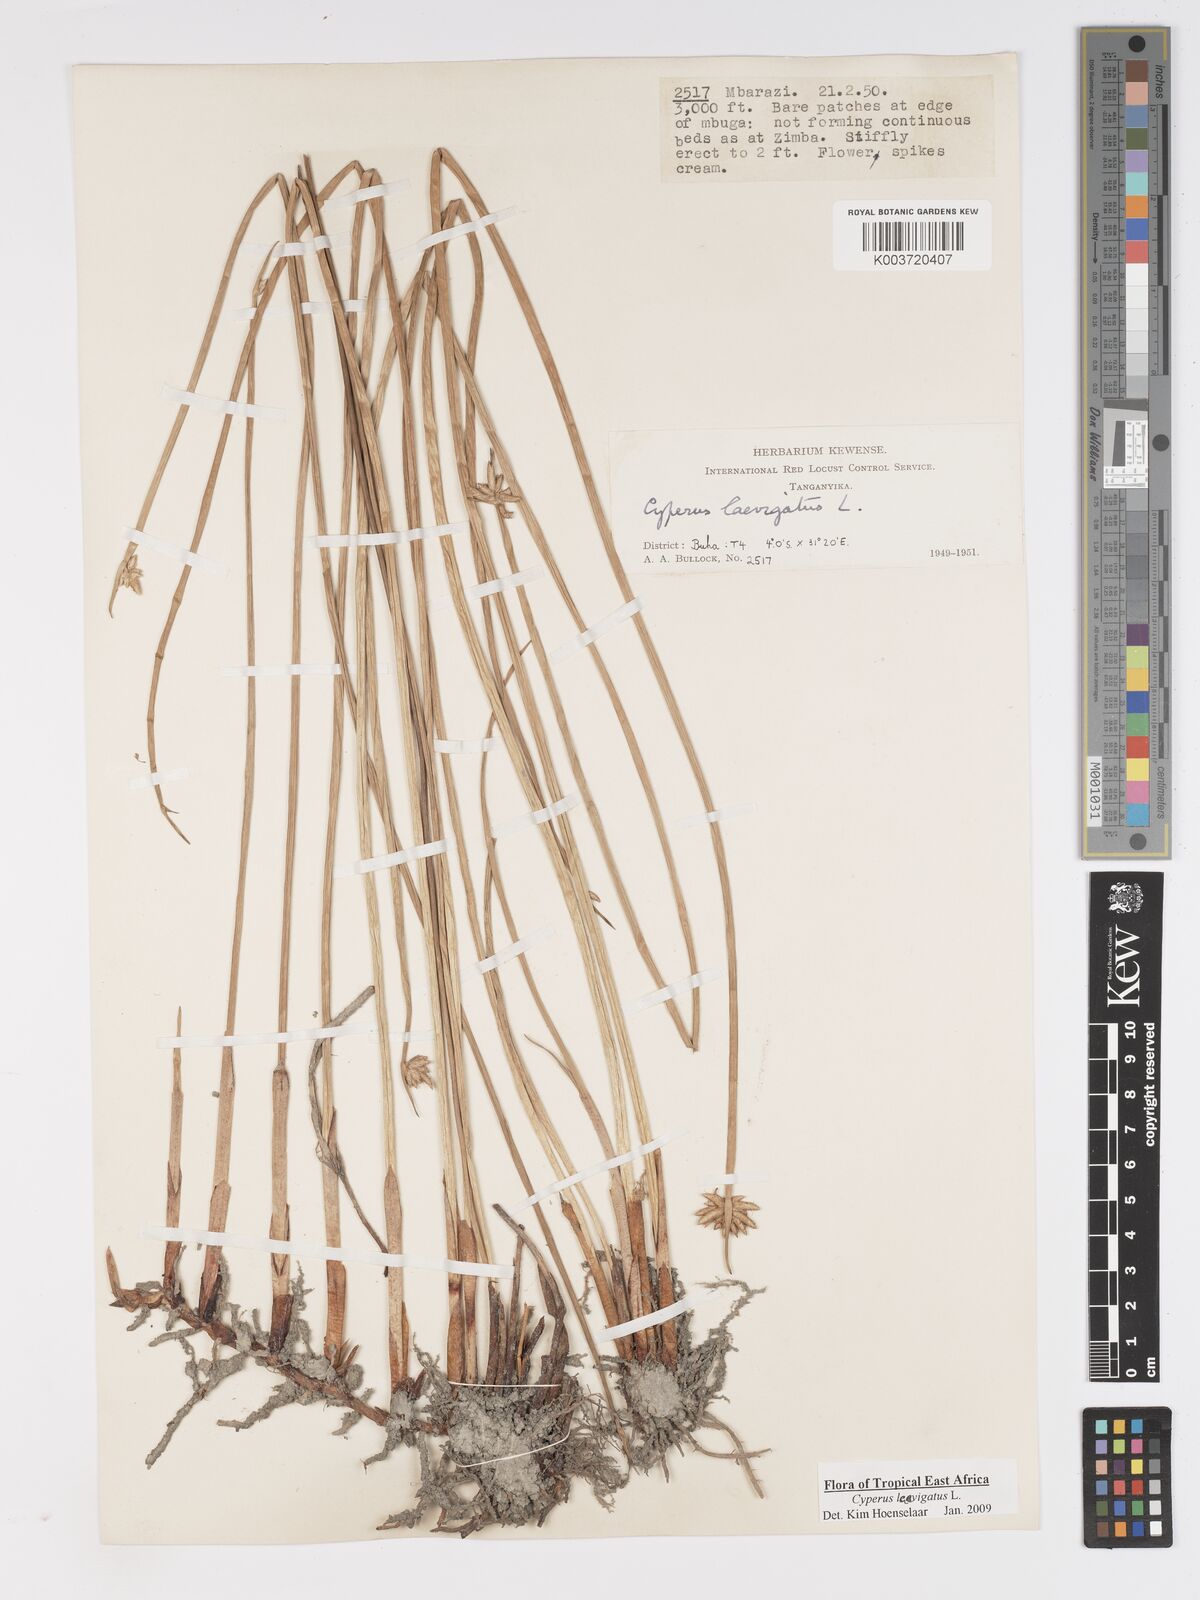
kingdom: Plantae
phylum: Tracheophyta
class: Liliopsida
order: Poales
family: Cyperaceae
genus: Cyperus
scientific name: Cyperus laevigatus
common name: Smooth flat sedge
